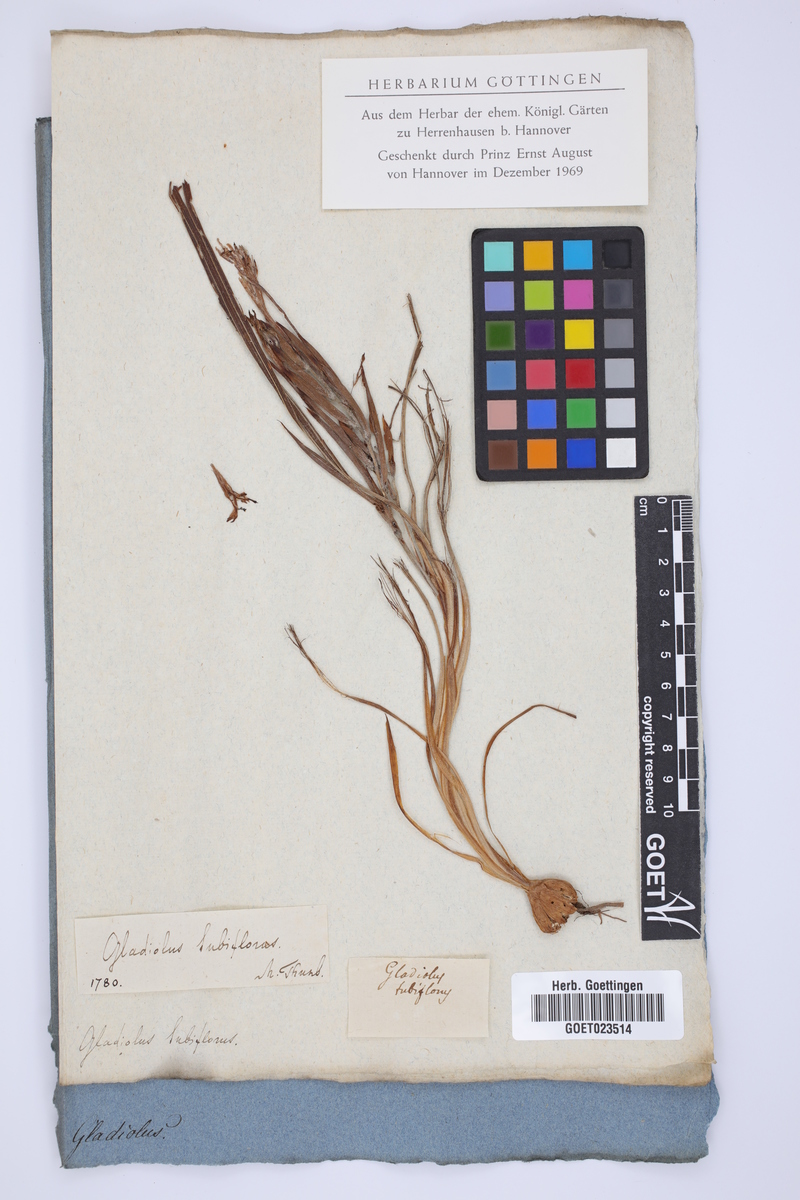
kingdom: Plantae
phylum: Tracheophyta
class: Liliopsida
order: Asparagales
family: Iridaceae
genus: Babiana
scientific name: Babiana tubiflora
